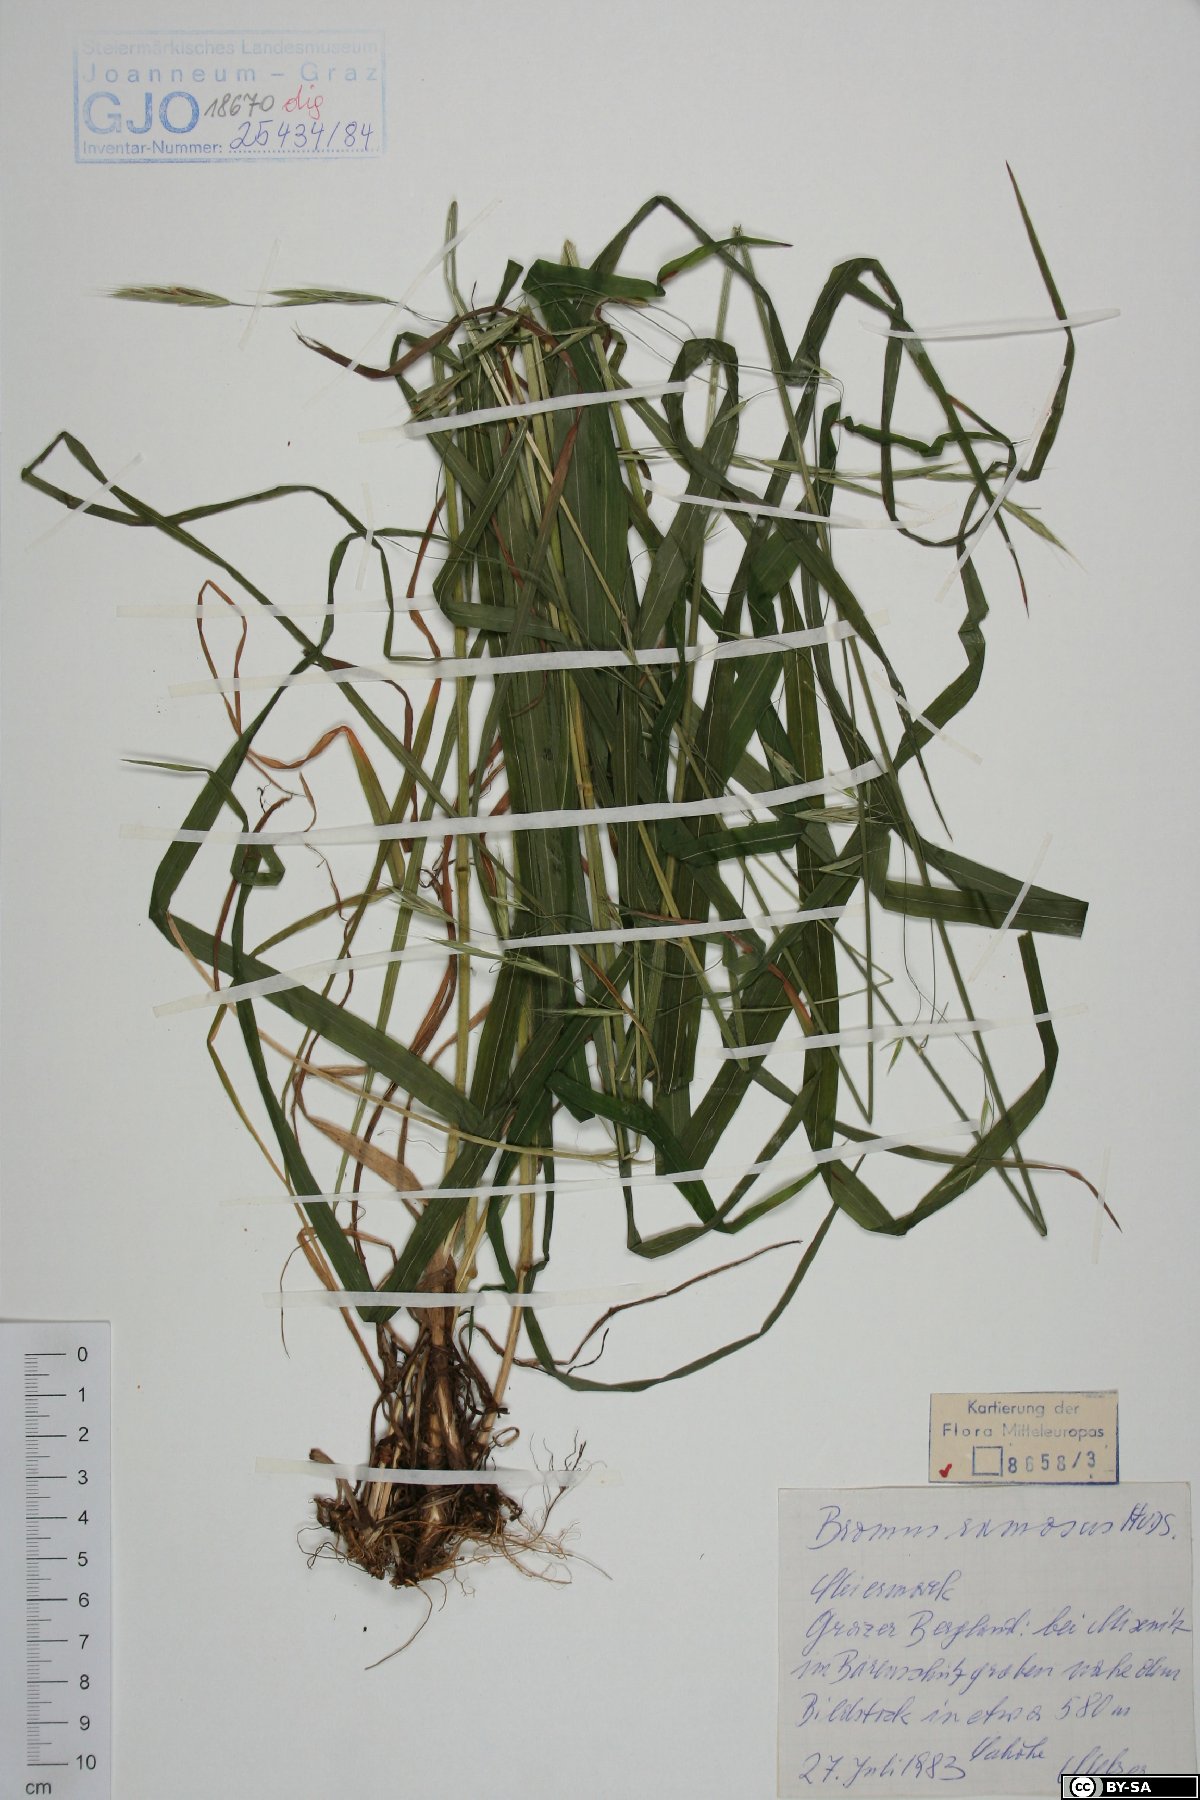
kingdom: Plantae
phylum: Tracheophyta
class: Liliopsida
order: Poales
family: Poaceae
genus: Bromus
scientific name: Bromus ramosus
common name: Hairy brome
